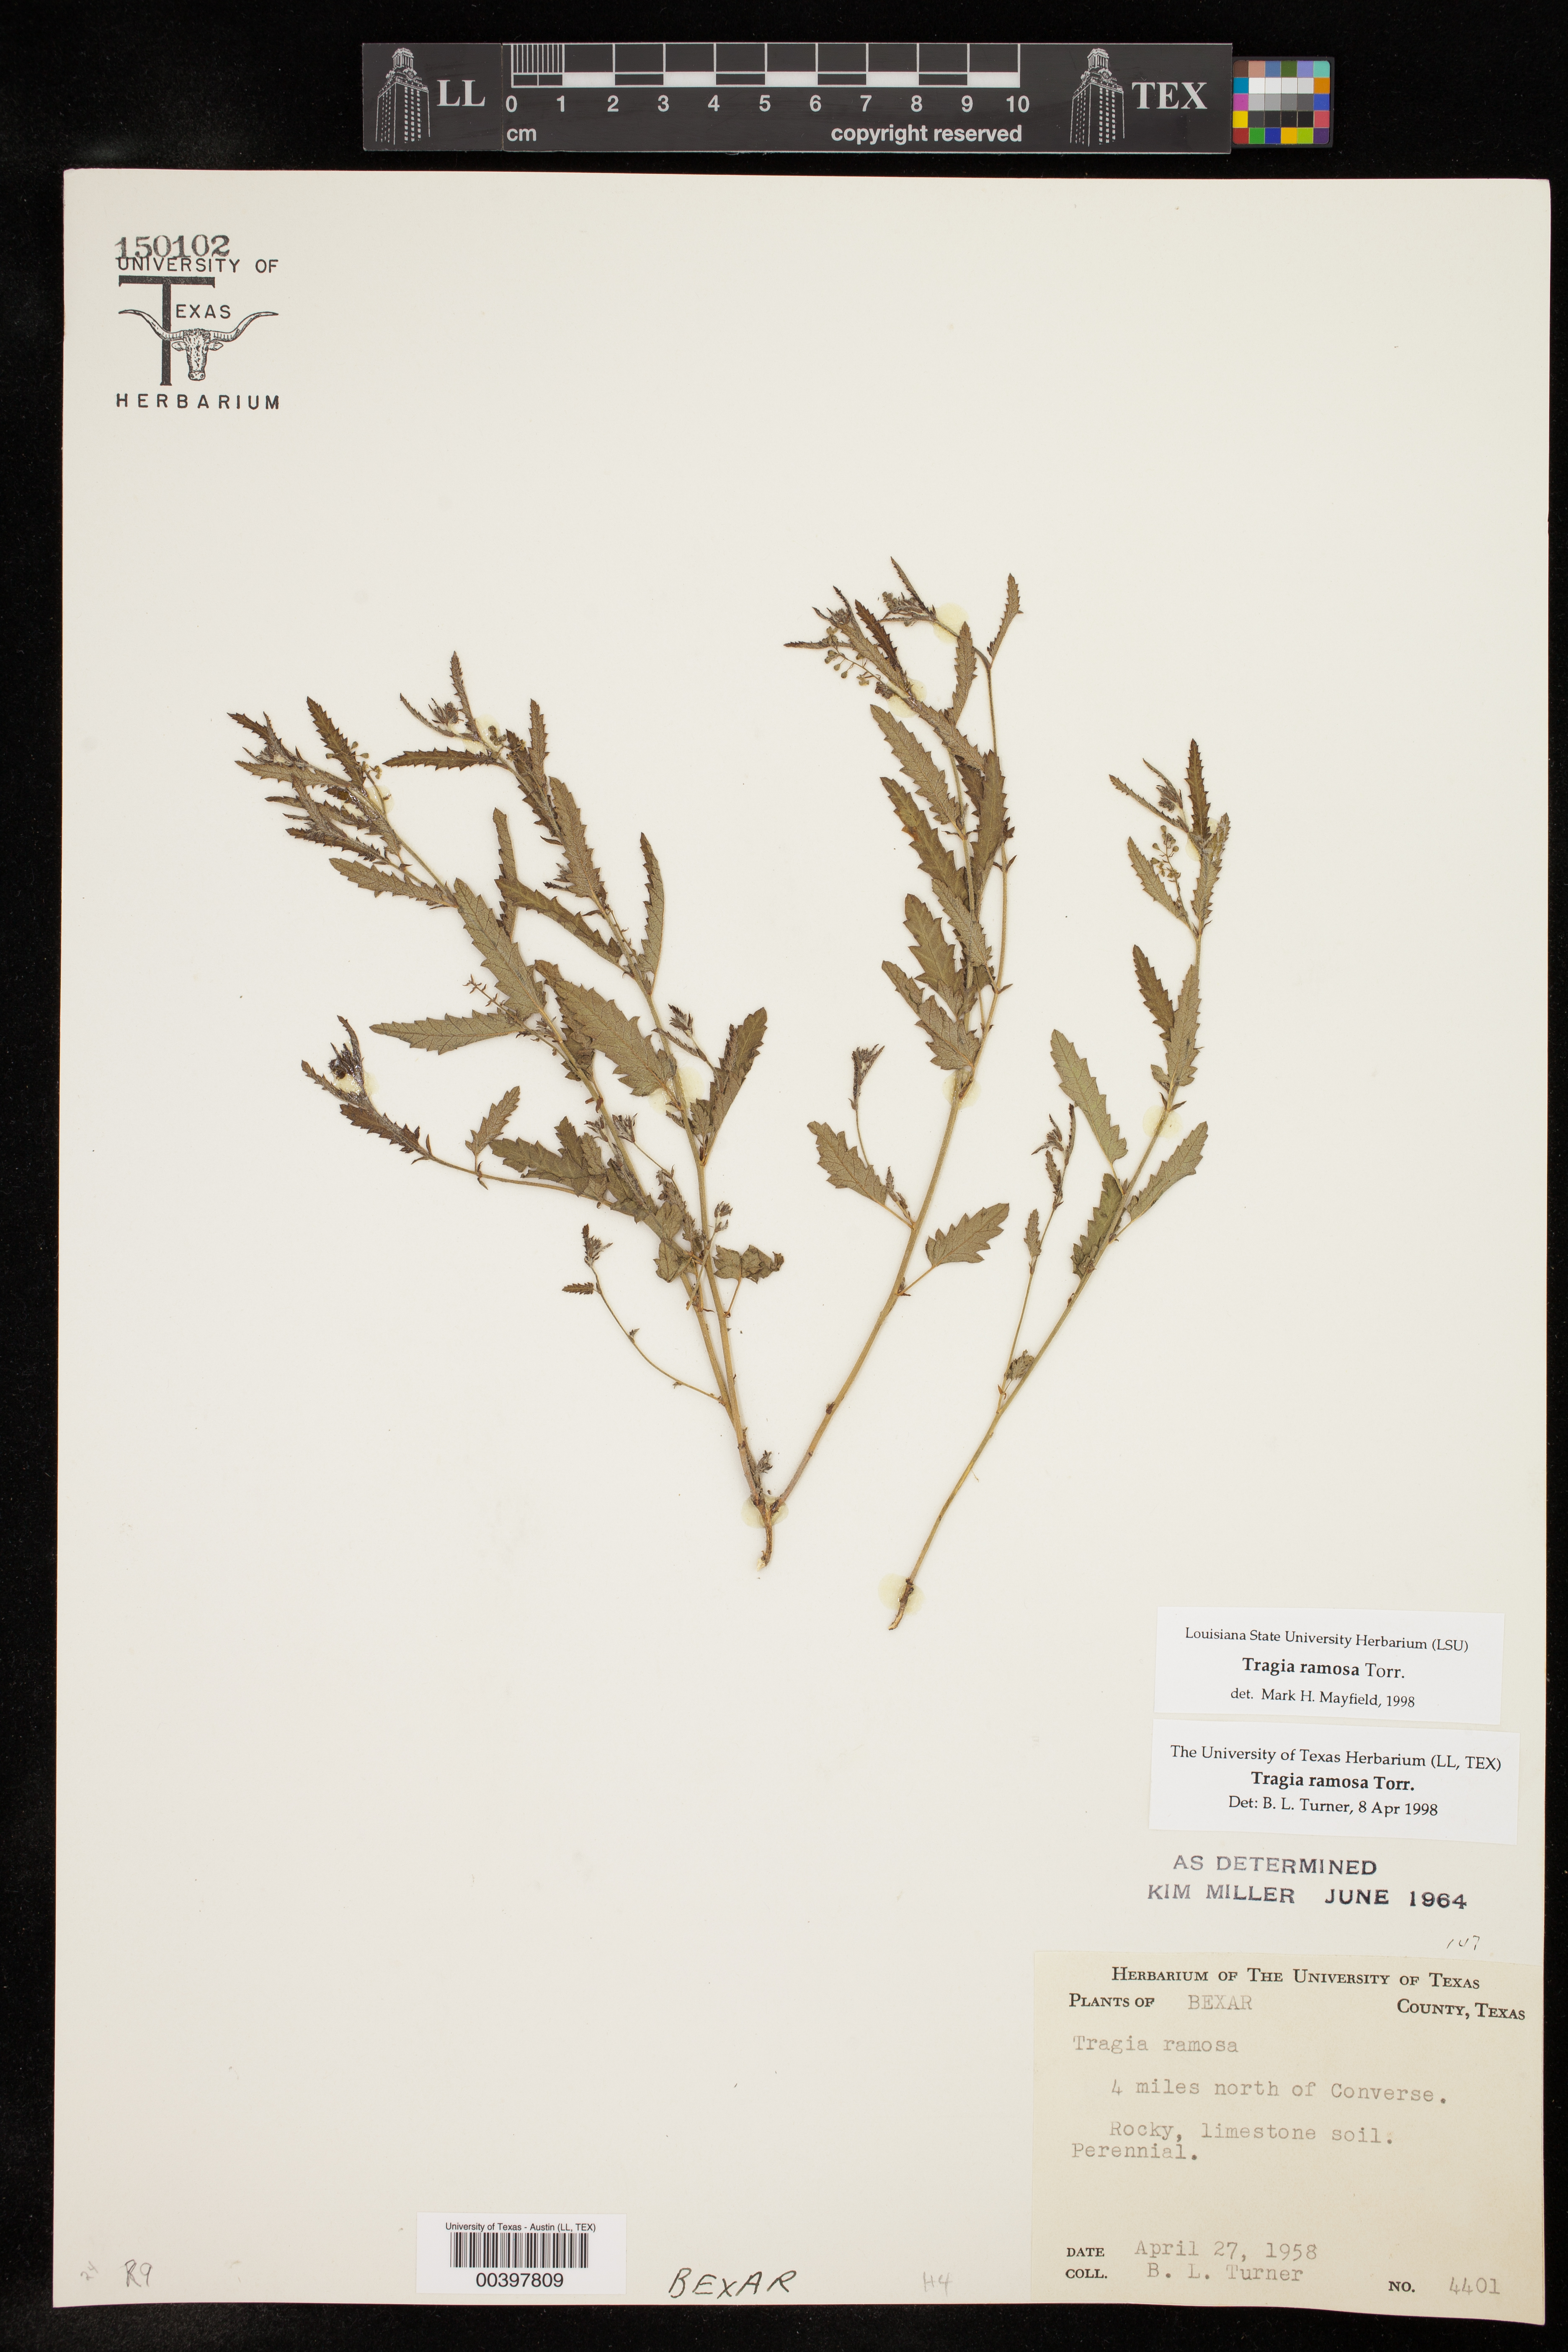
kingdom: Plantae
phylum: Tracheophyta
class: Magnoliopsida
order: Malpighiales
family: Euphorbiaceae
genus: Tragia
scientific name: Tragia ramosa
